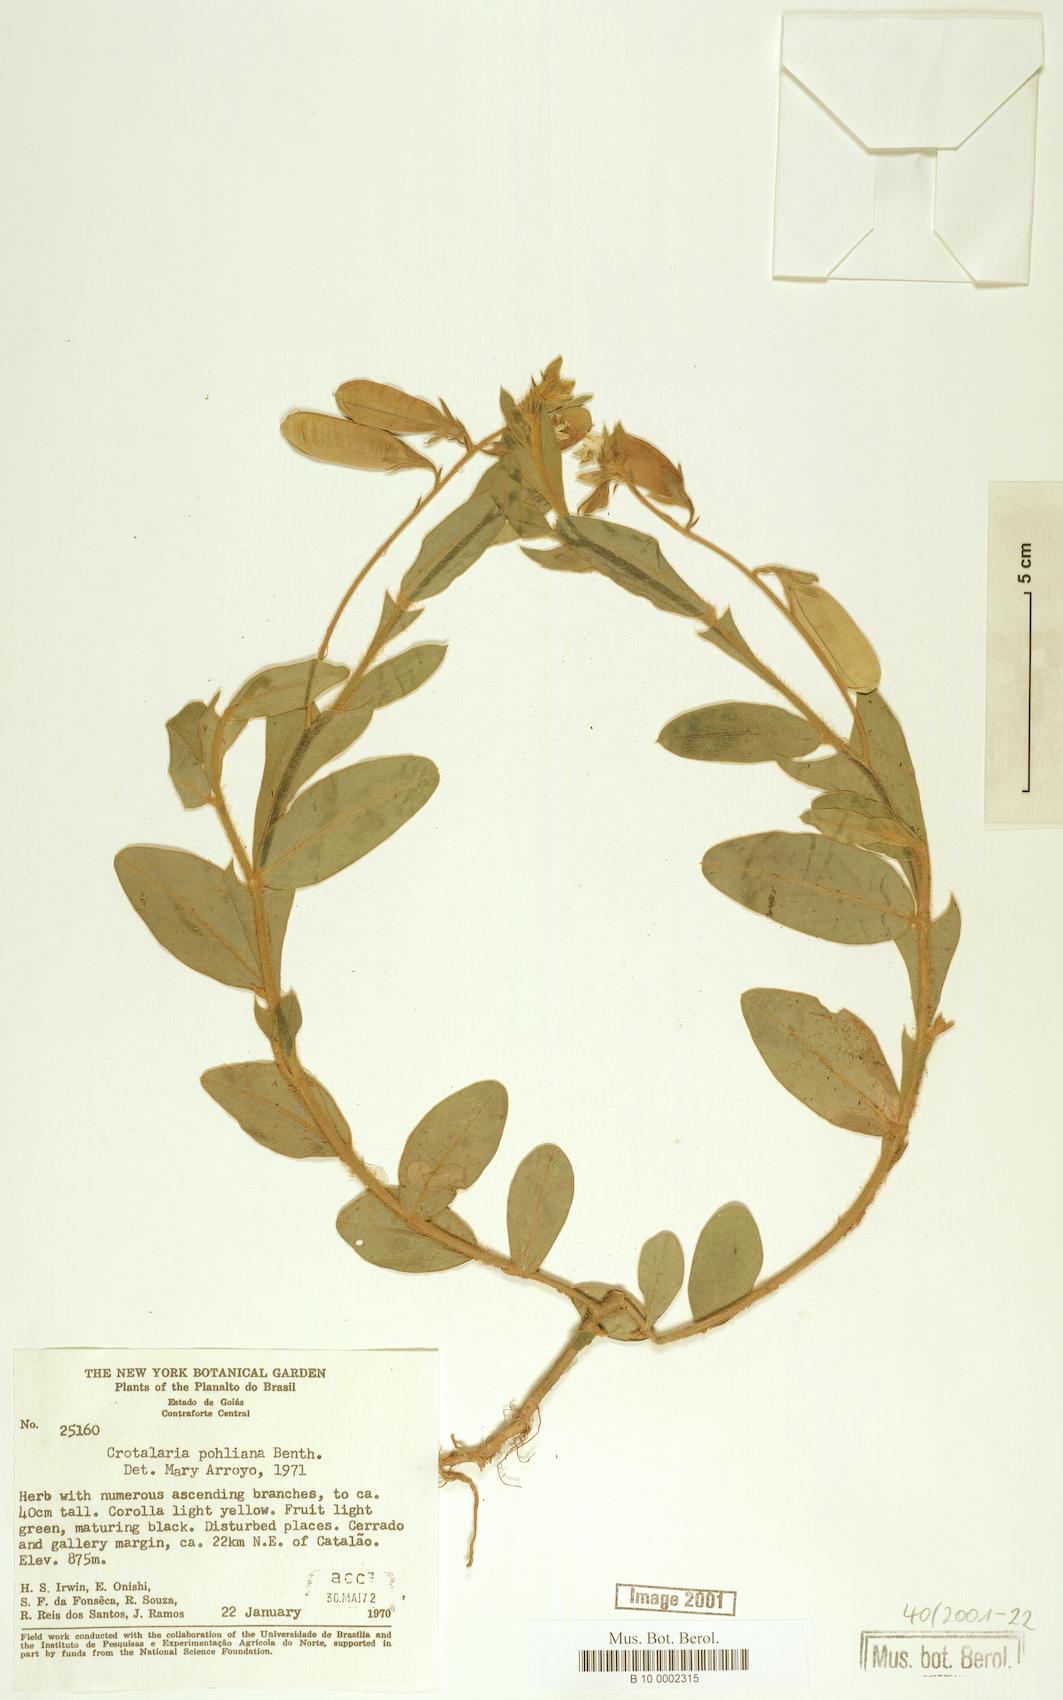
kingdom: Plantae
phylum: Tracheophyta
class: Magnoliopsida
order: Fabales
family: Fabaceae
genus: Crotalaria
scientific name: Crotalaria breviflora
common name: Short-flower crotalaria
